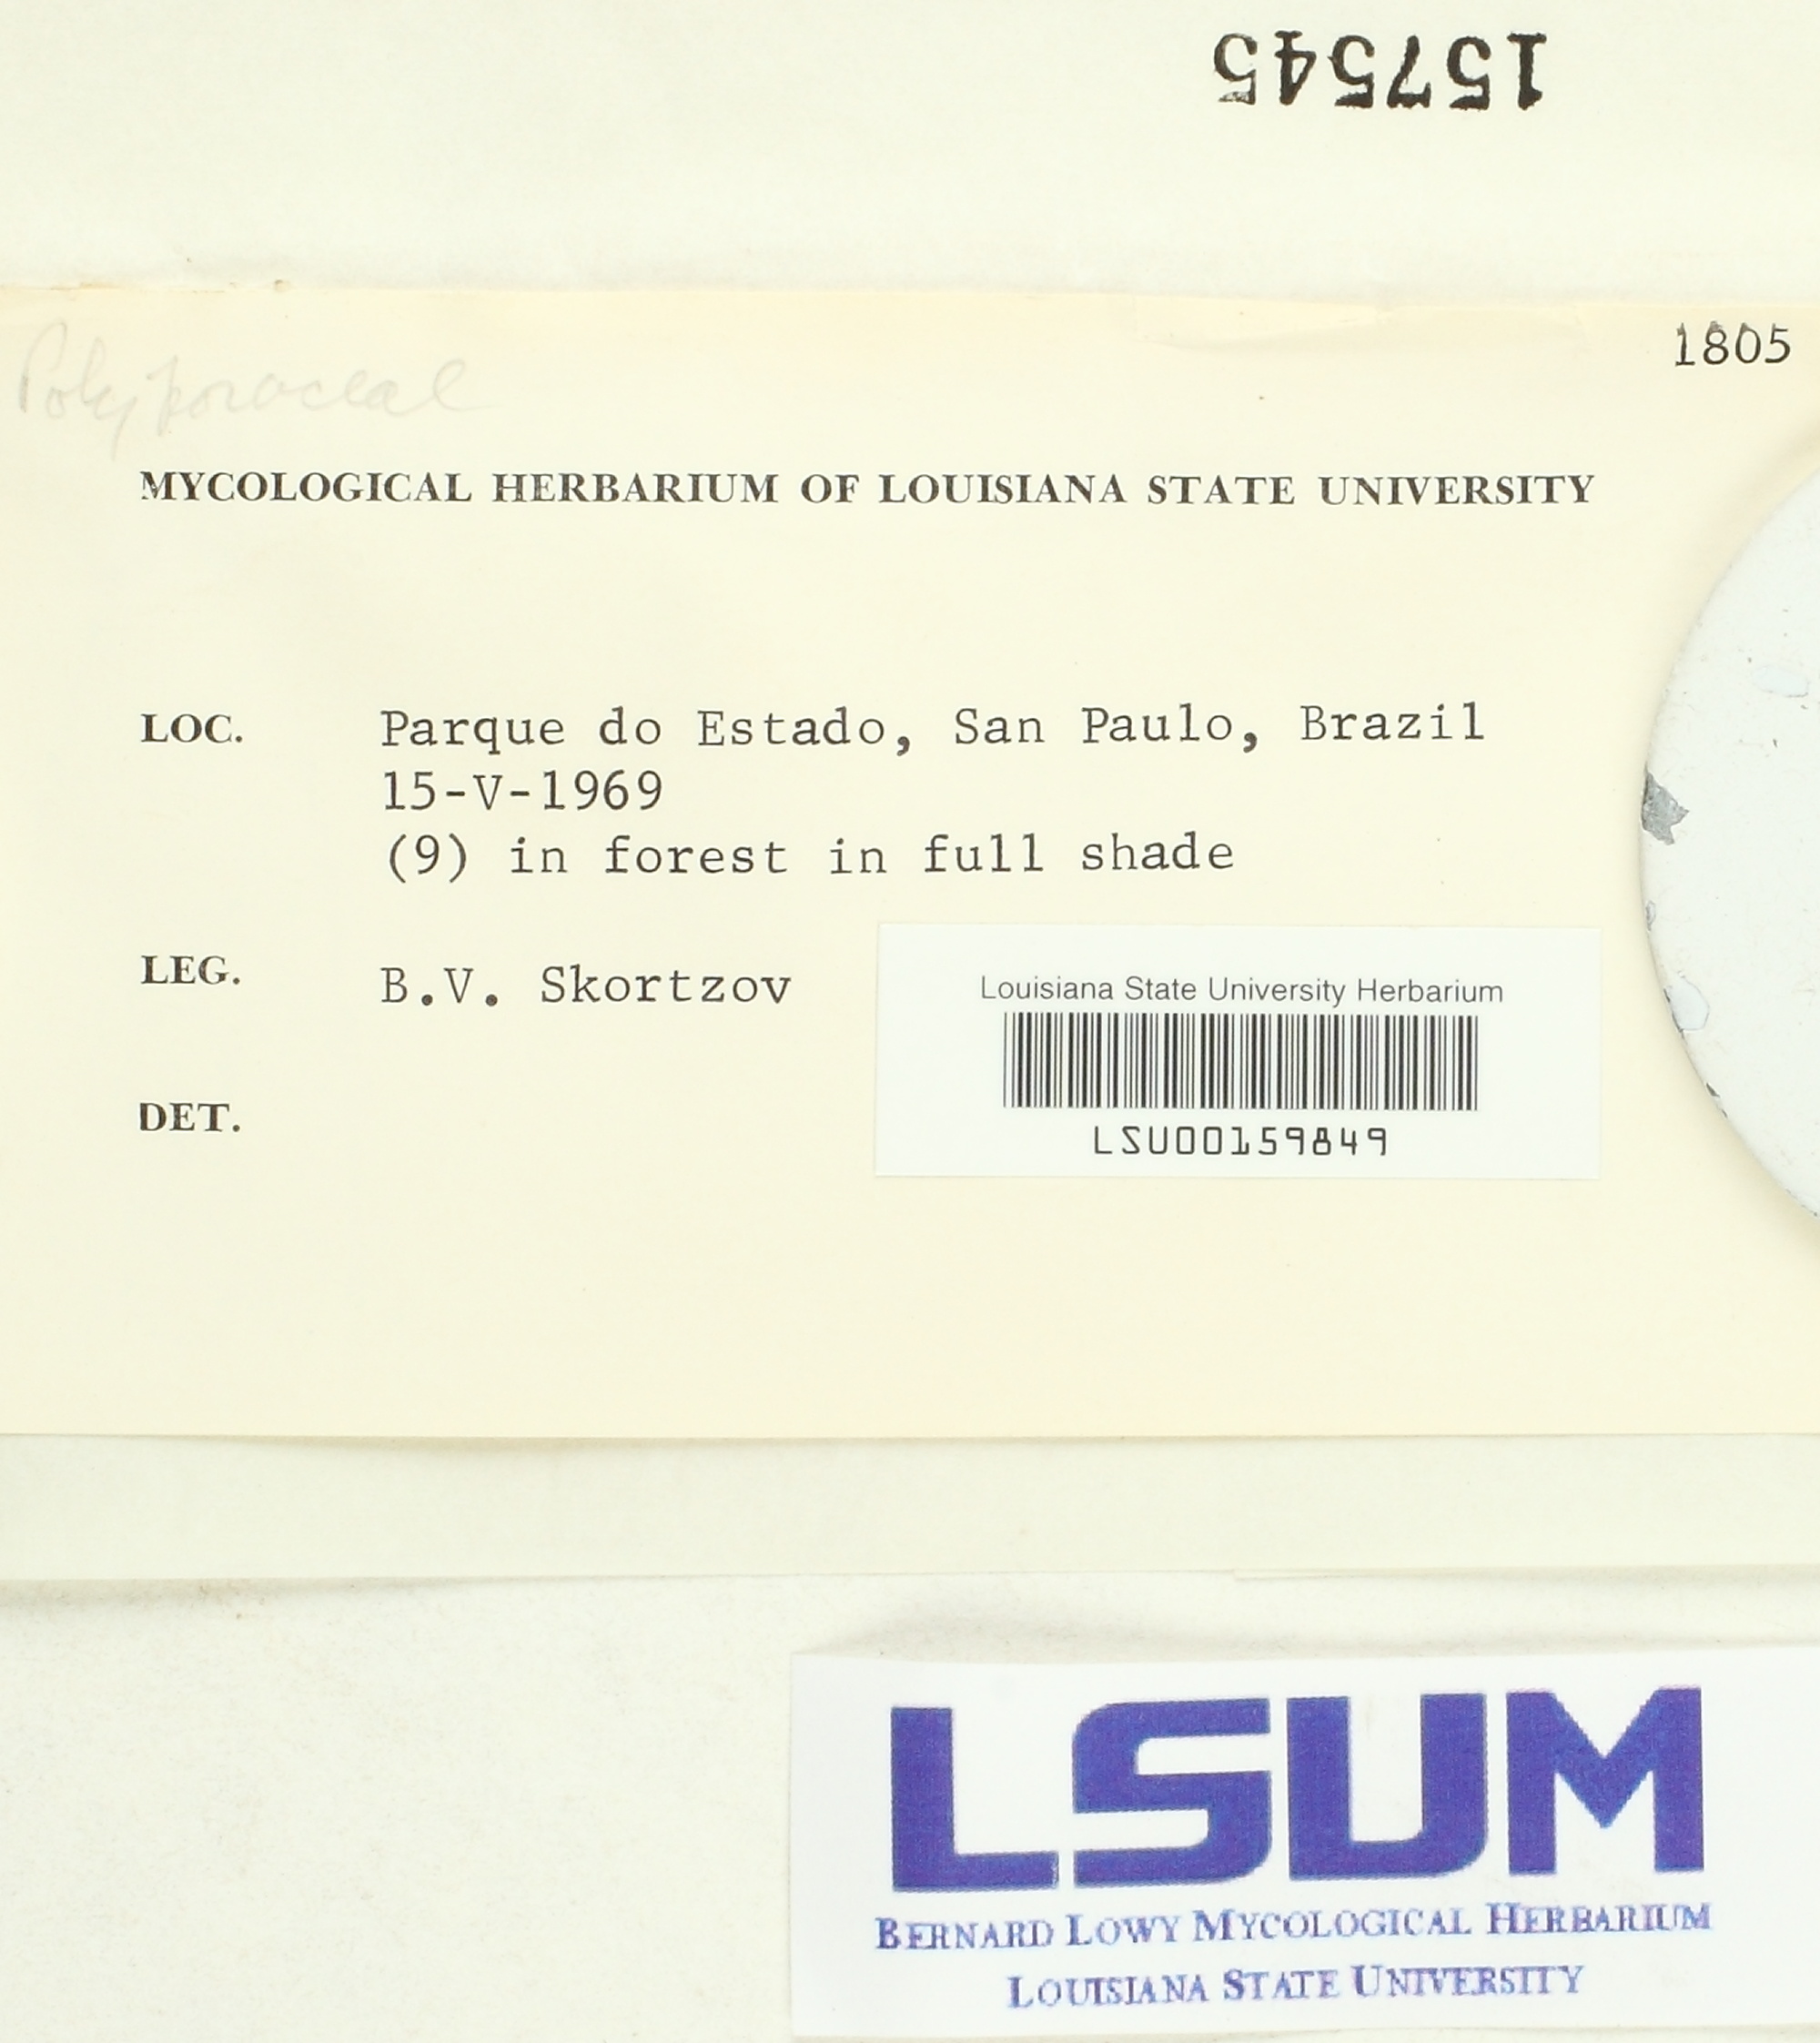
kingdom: Fungi
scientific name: Fungi
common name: Fungi
